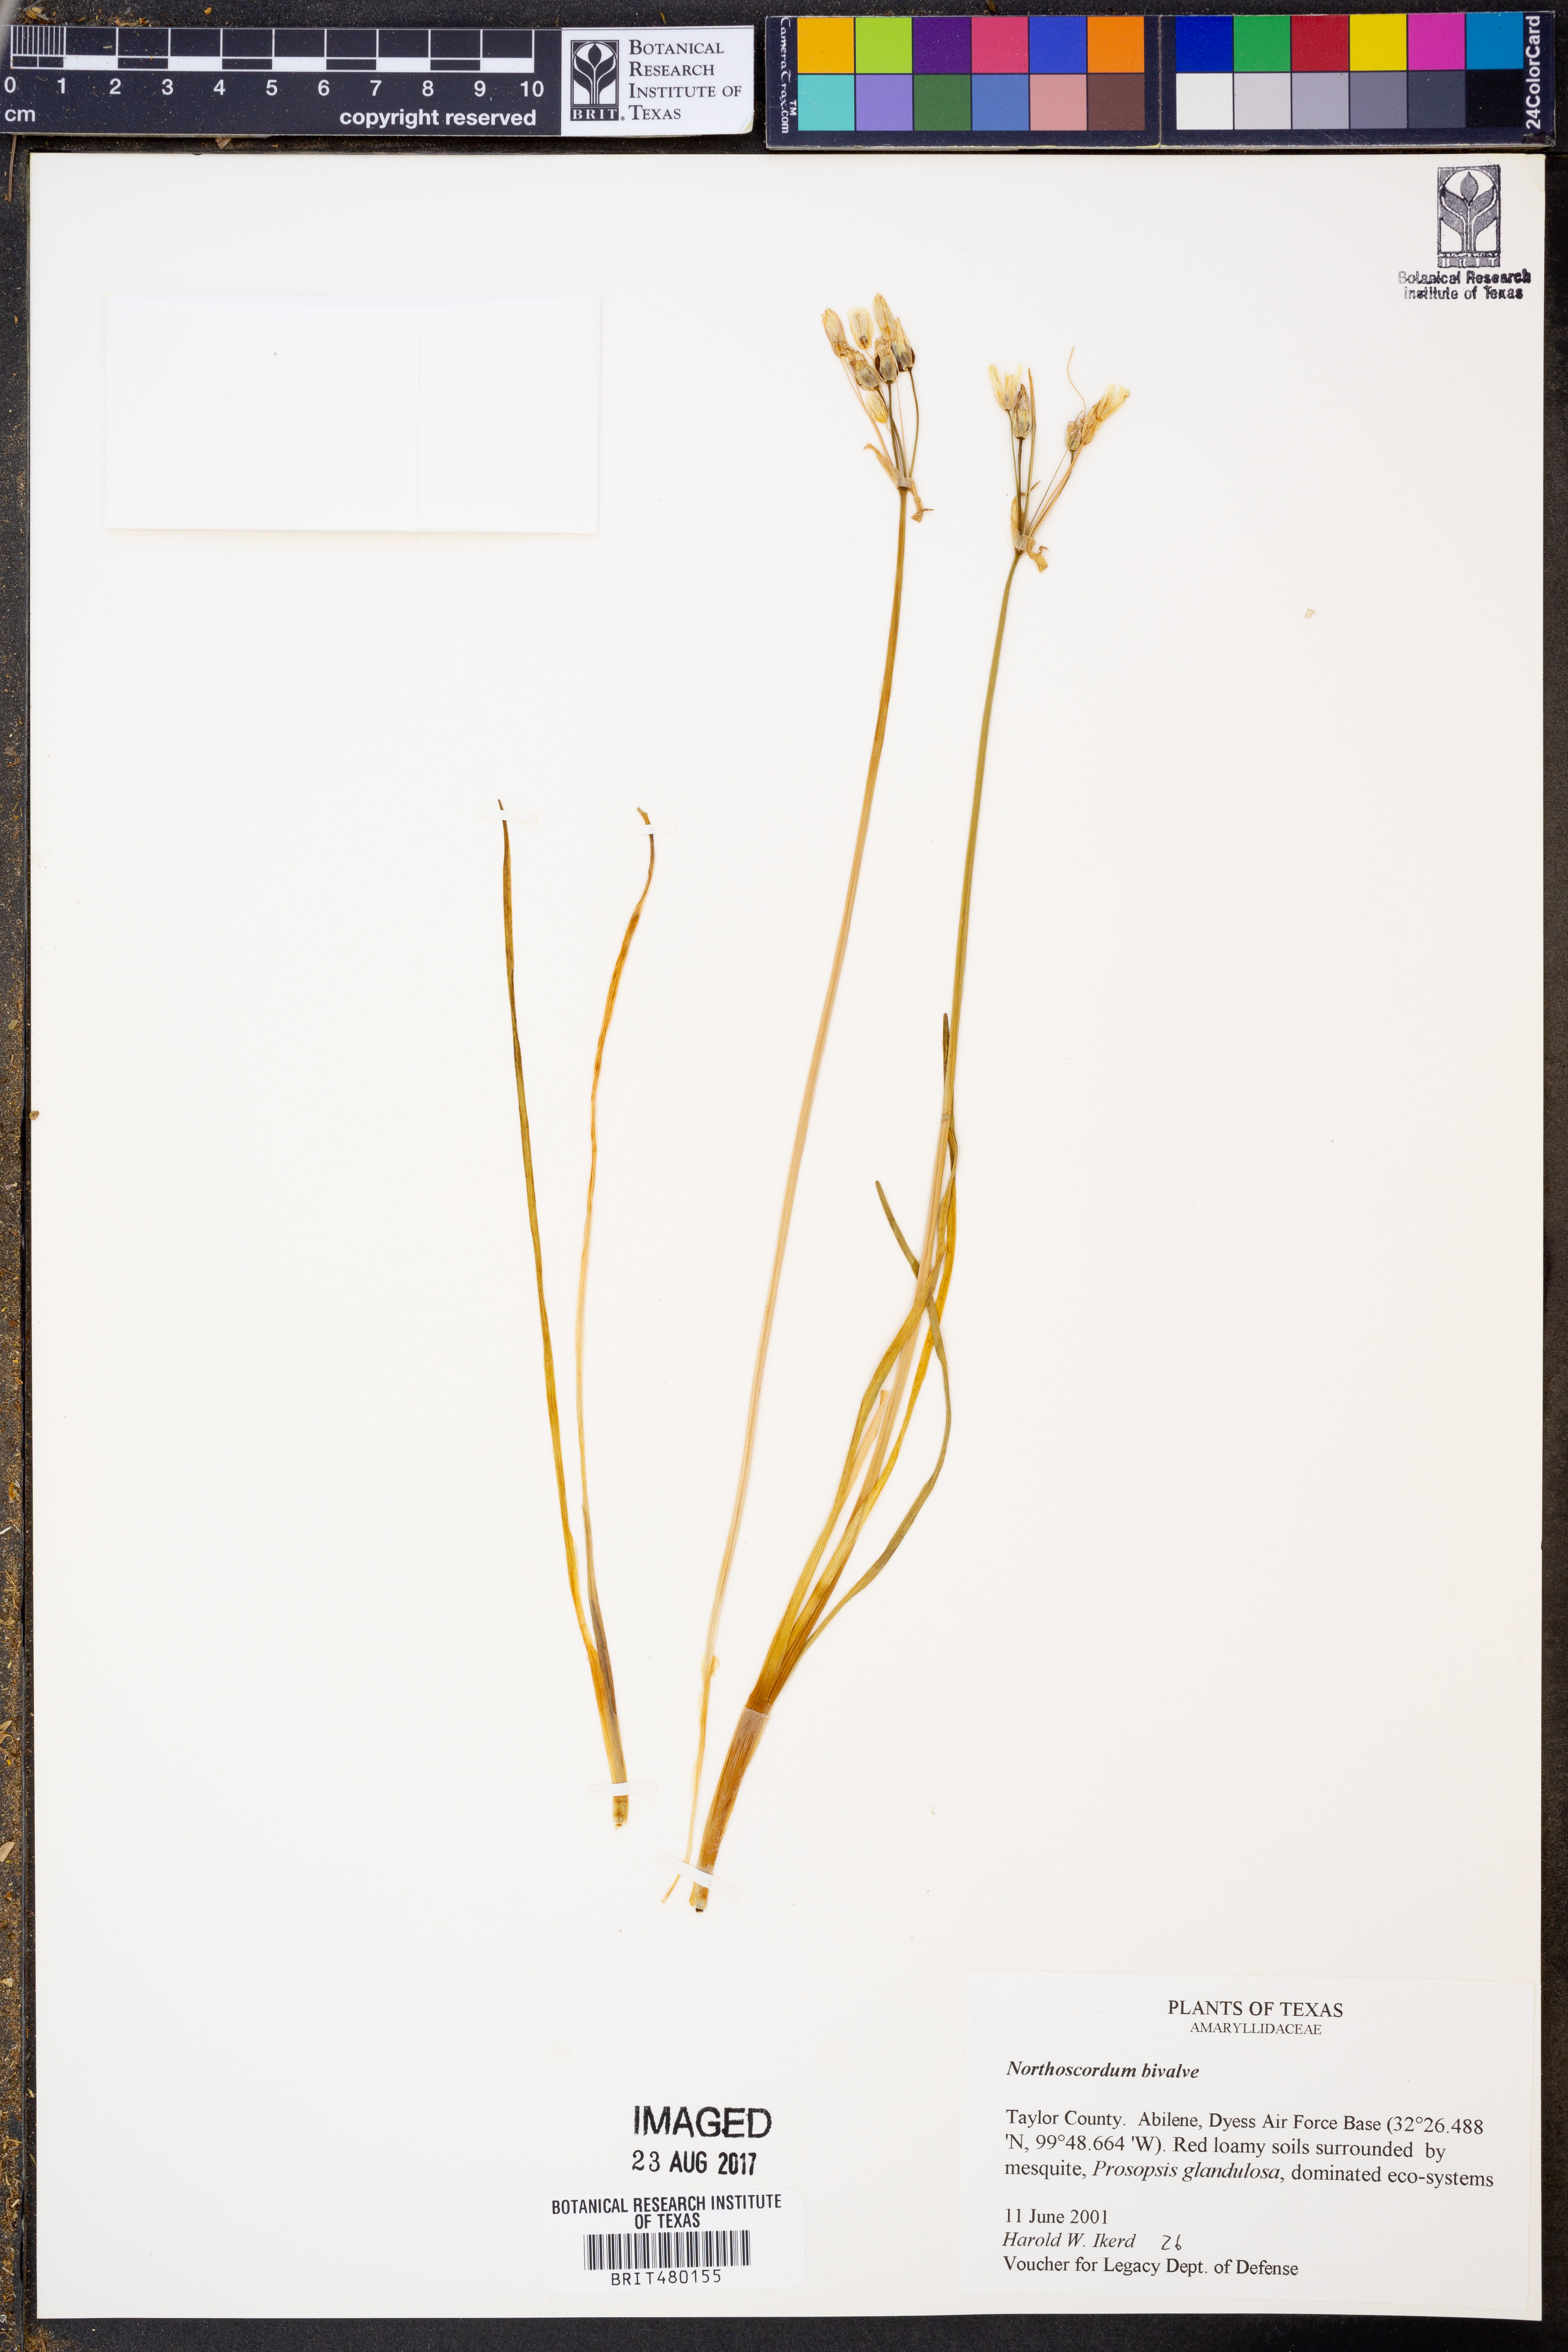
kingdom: Plantae
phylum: Tracheophyta
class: Liliopsida
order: Asparagales
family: Amaryllidaceae
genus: Nothoscordum
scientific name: Nothoscordum bivalve
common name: Crow-poison
